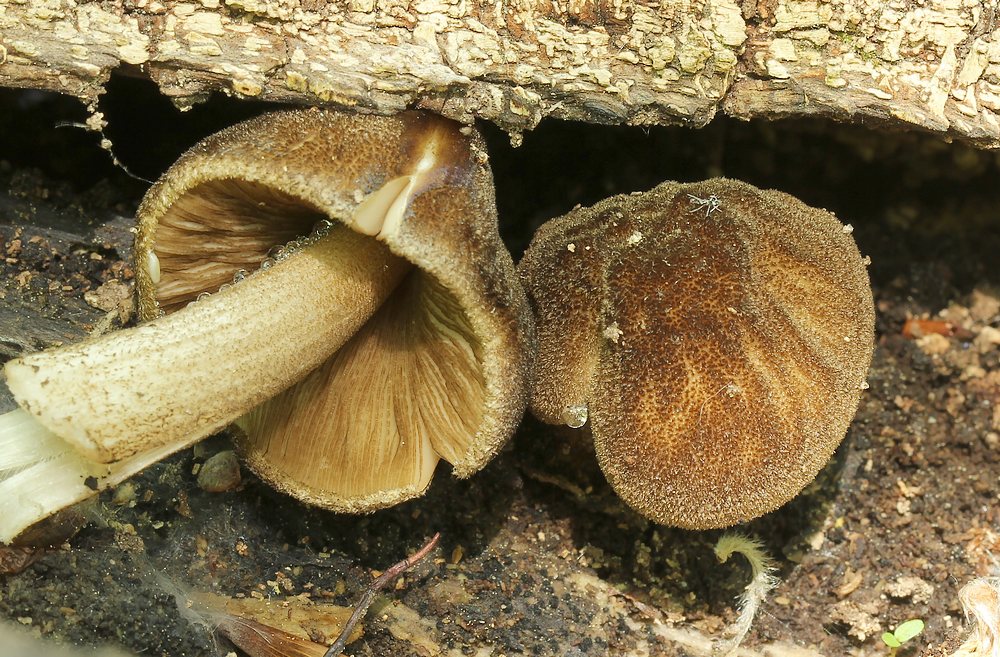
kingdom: Fungi
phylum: Basidiomycota
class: Agaricomycetes
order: Agaricales
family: Pluteaceae
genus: Pluteus
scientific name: Pluteus umbrosus
